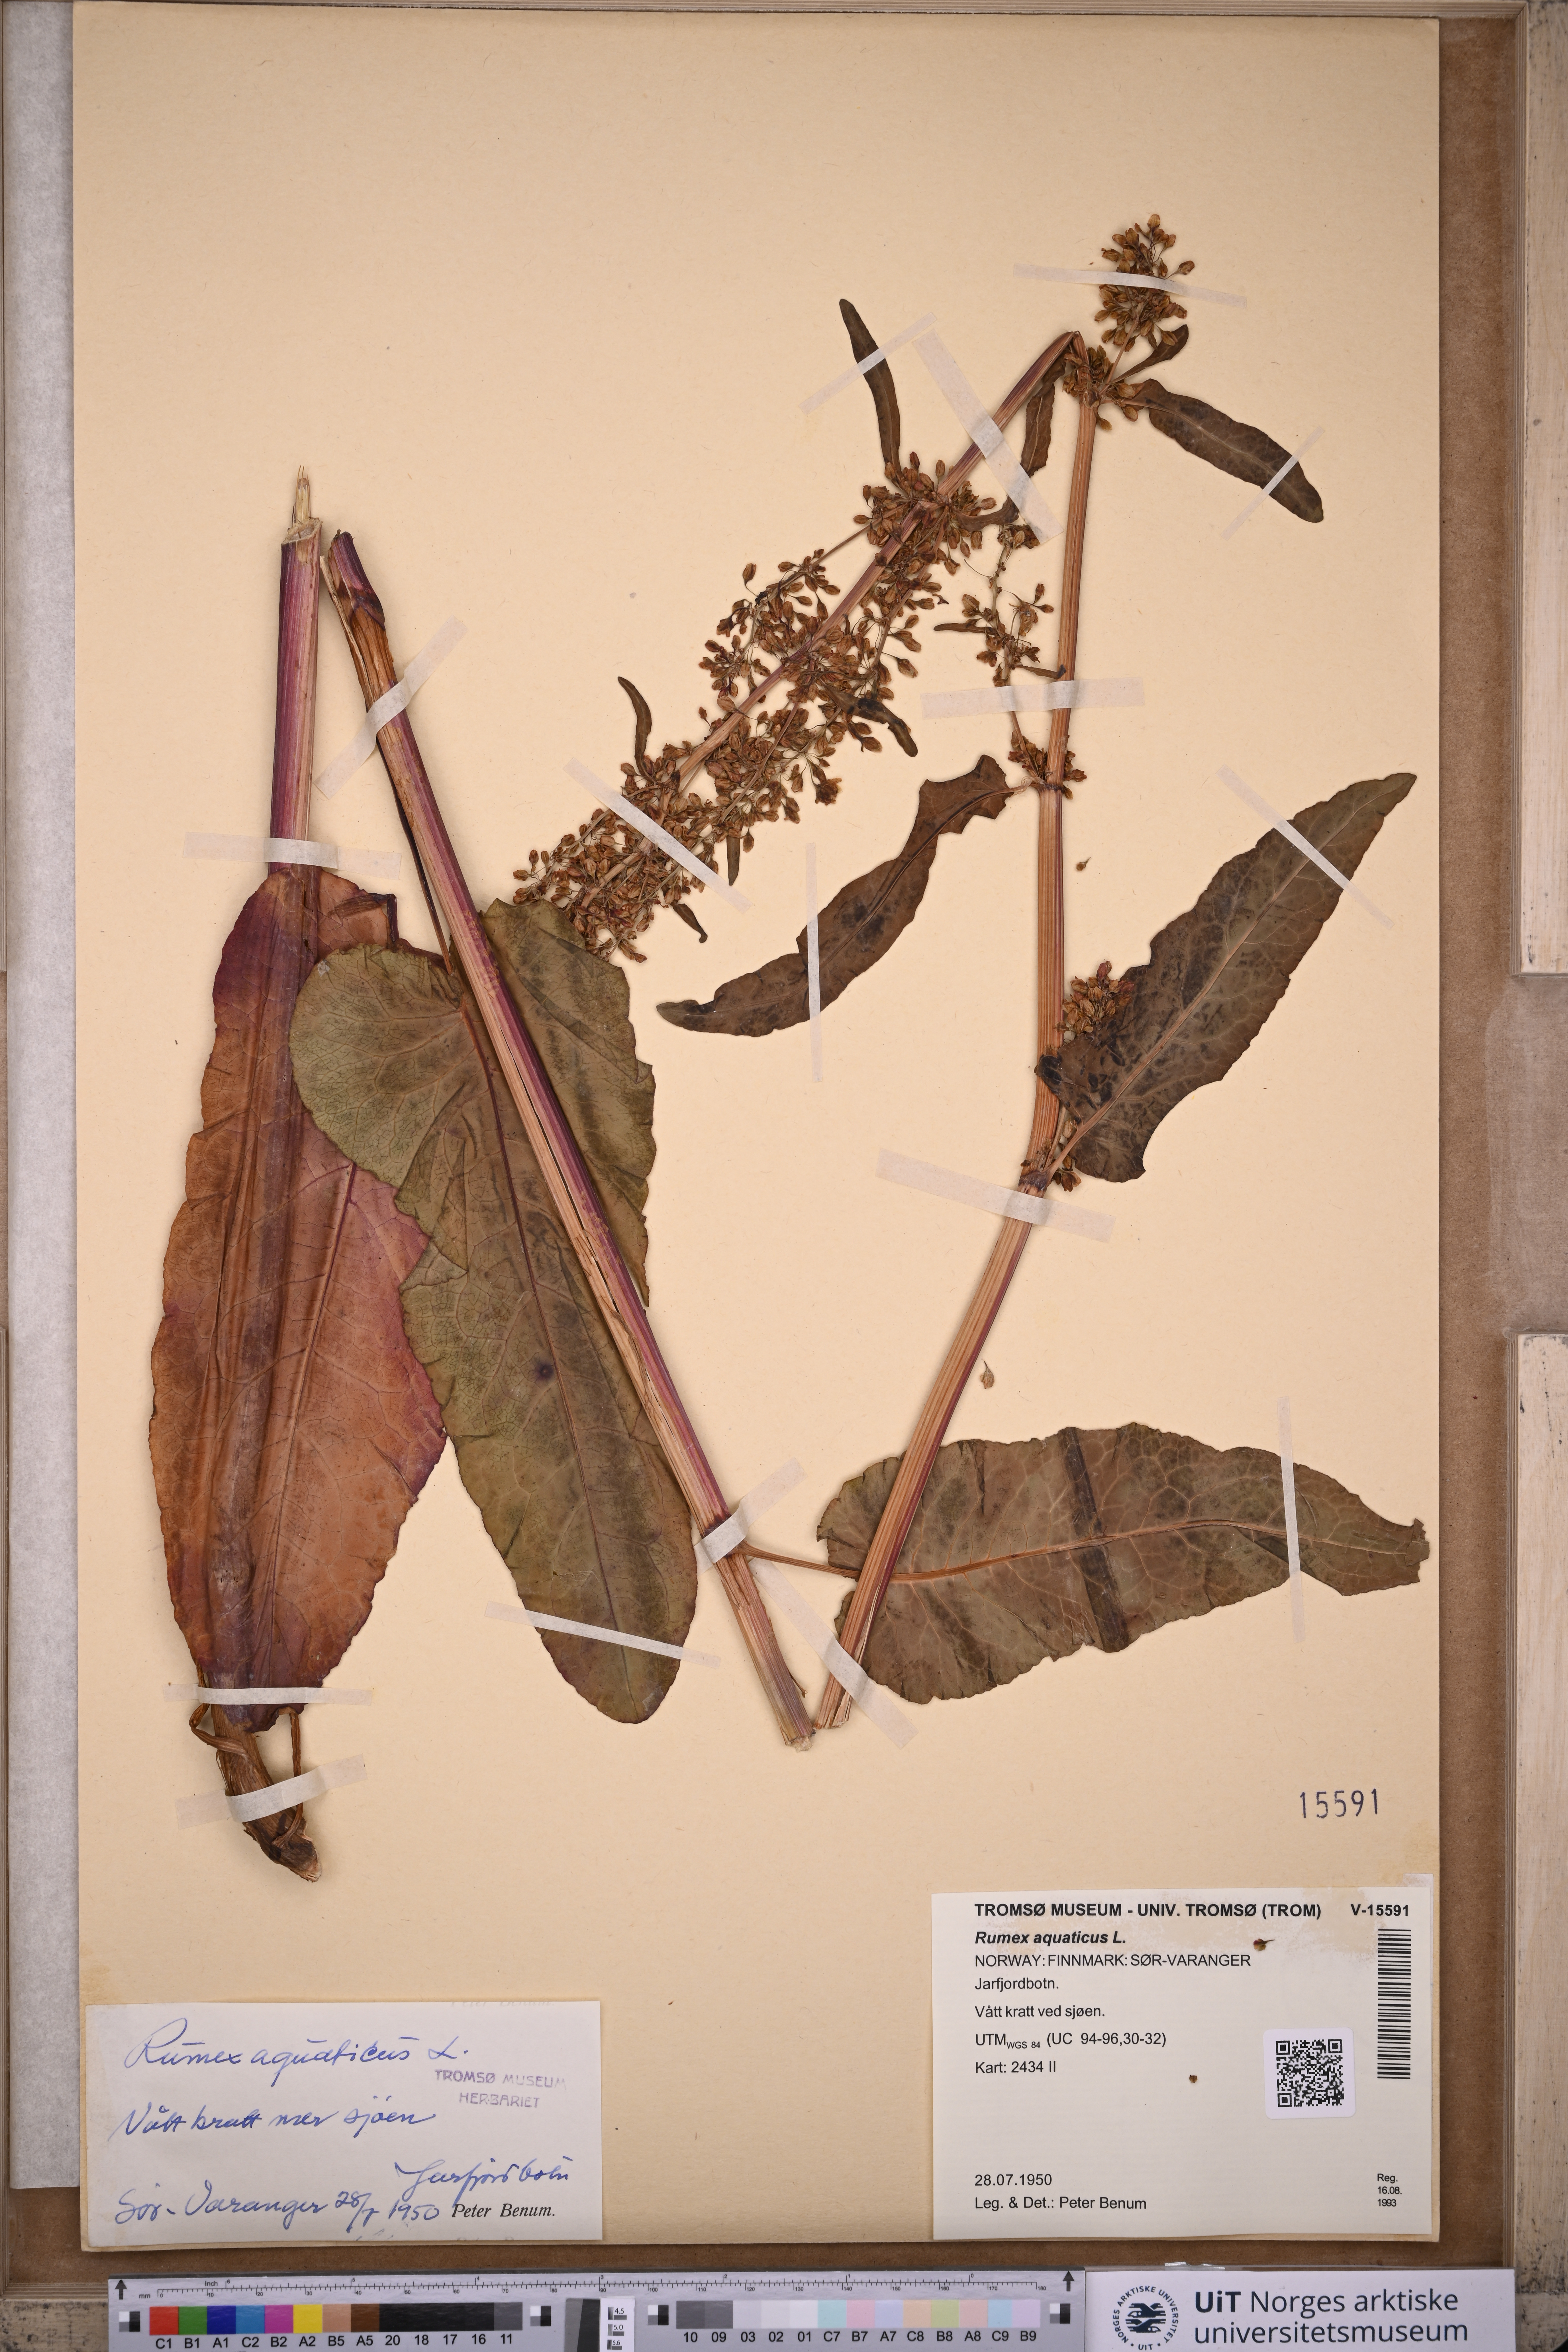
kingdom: Plantae
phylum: Tracheophyta
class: Magnoliopsida
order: Caryophyllales
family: Polygonaceae
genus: Rumex
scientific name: Rumex aquaticus
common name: Scottish dock
